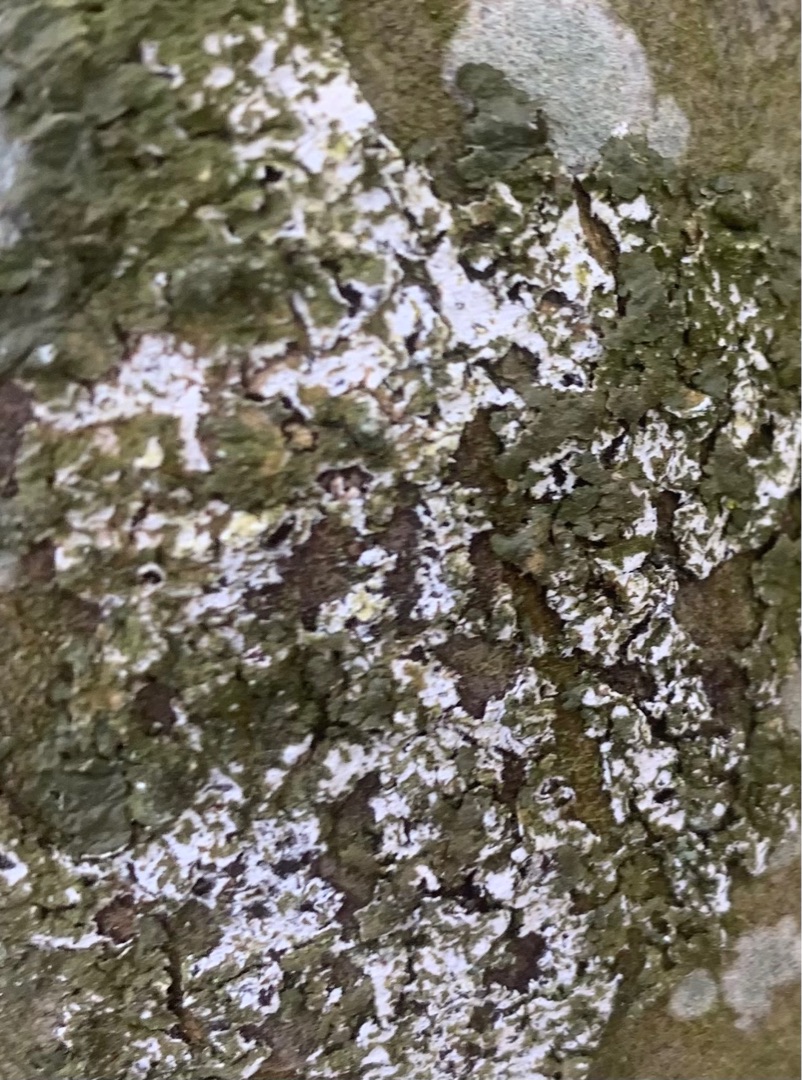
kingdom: Fungi
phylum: Ascomycota
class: Lecanoromycetes
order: Lecanorales
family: Parmeliaceae
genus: Melanelixia
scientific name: Melanelixia glabratula
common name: Glinsende skållav
